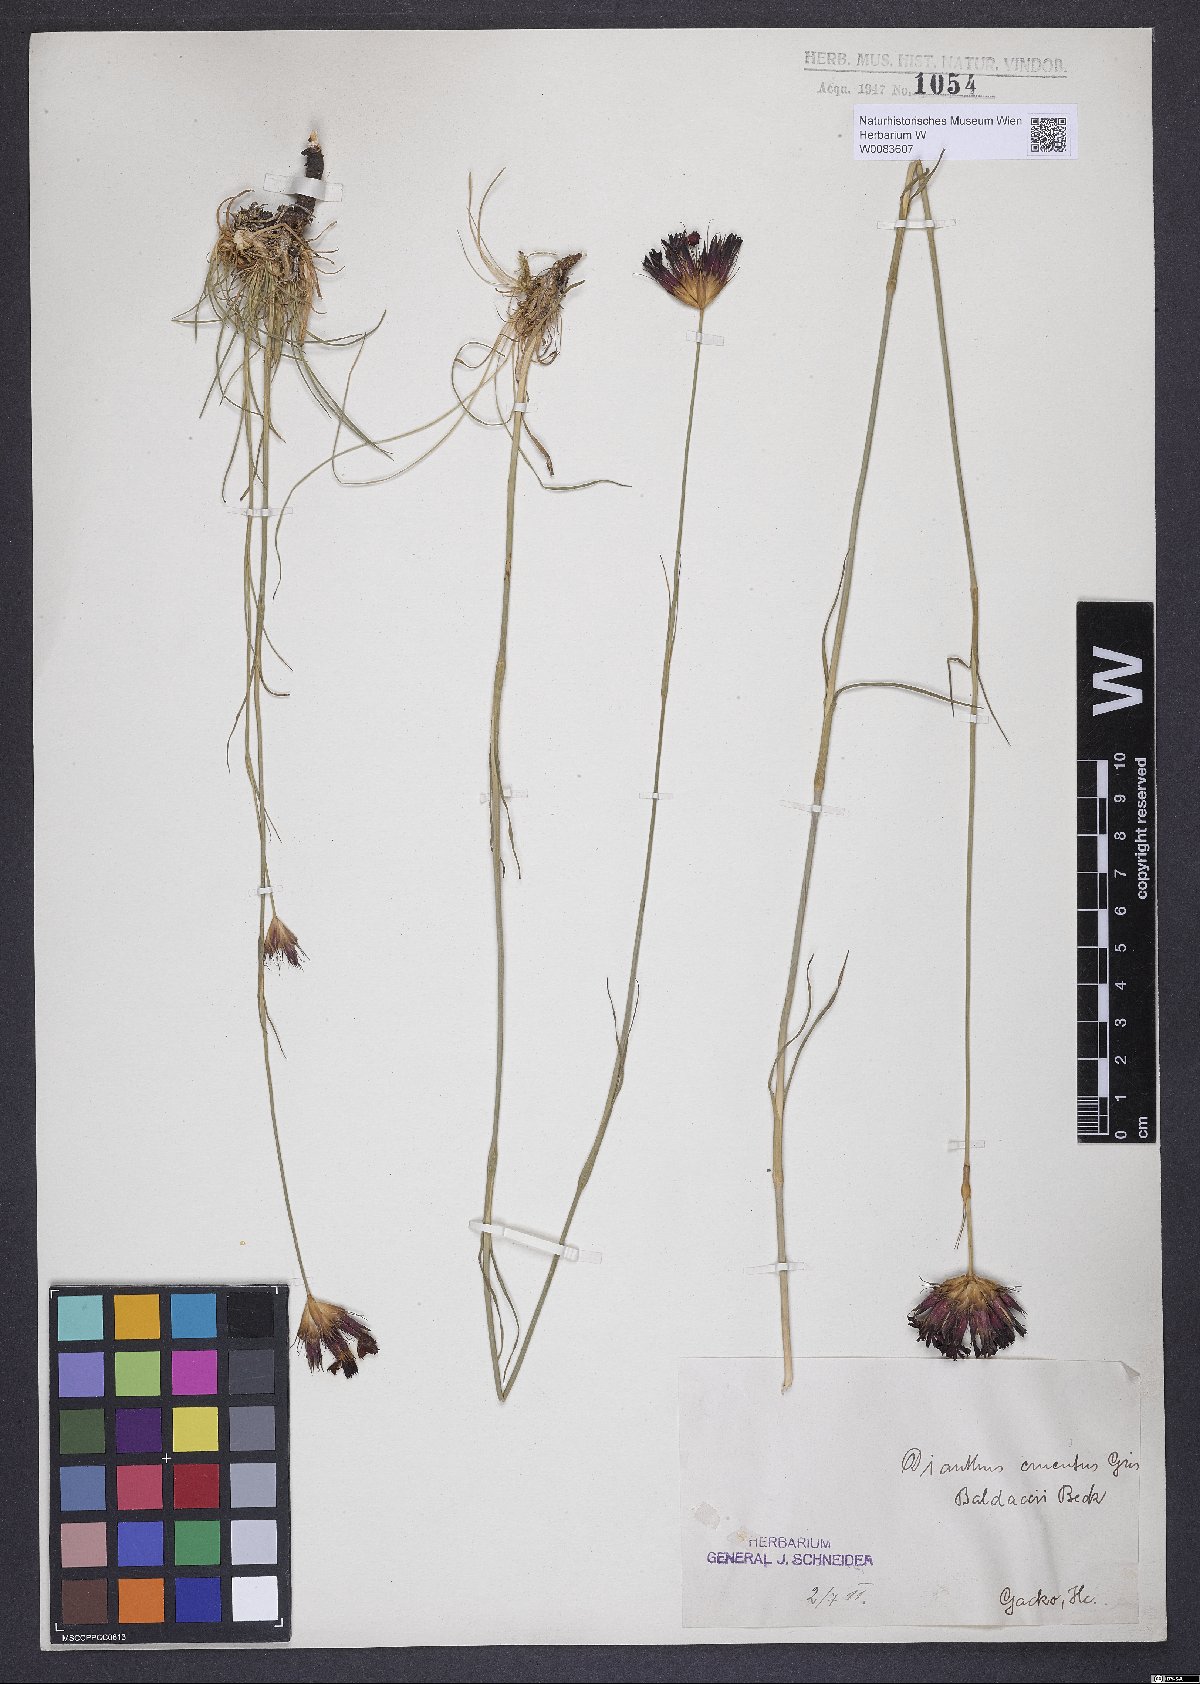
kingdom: Plantae
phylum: Tracheophyta
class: Magnoliopsida
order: Caryophyllales
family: Caryophyllaceae
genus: Dianthus
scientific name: Dianthus cruentus
